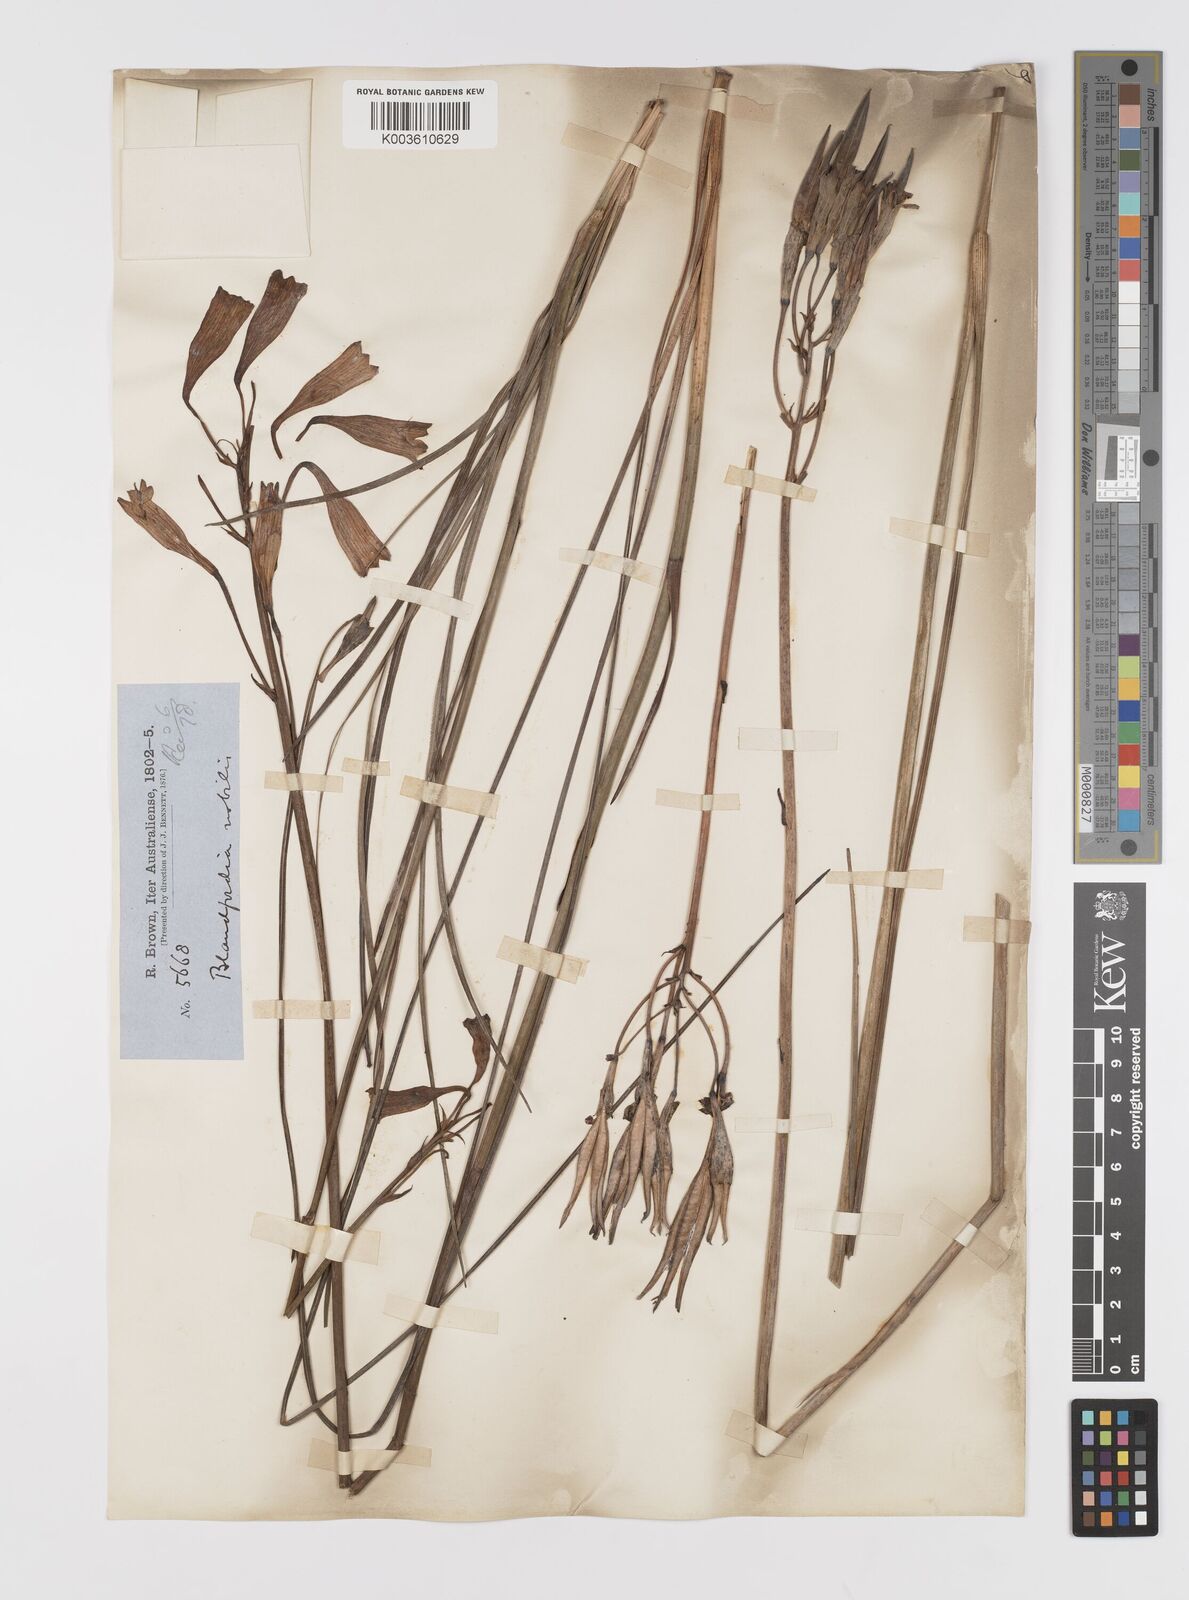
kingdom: Plantae
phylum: Tracheophyta
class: Liliopsida
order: Asparagales
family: Blandfordiaceae
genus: Blandfordia
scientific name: Blandfordia nobilis
